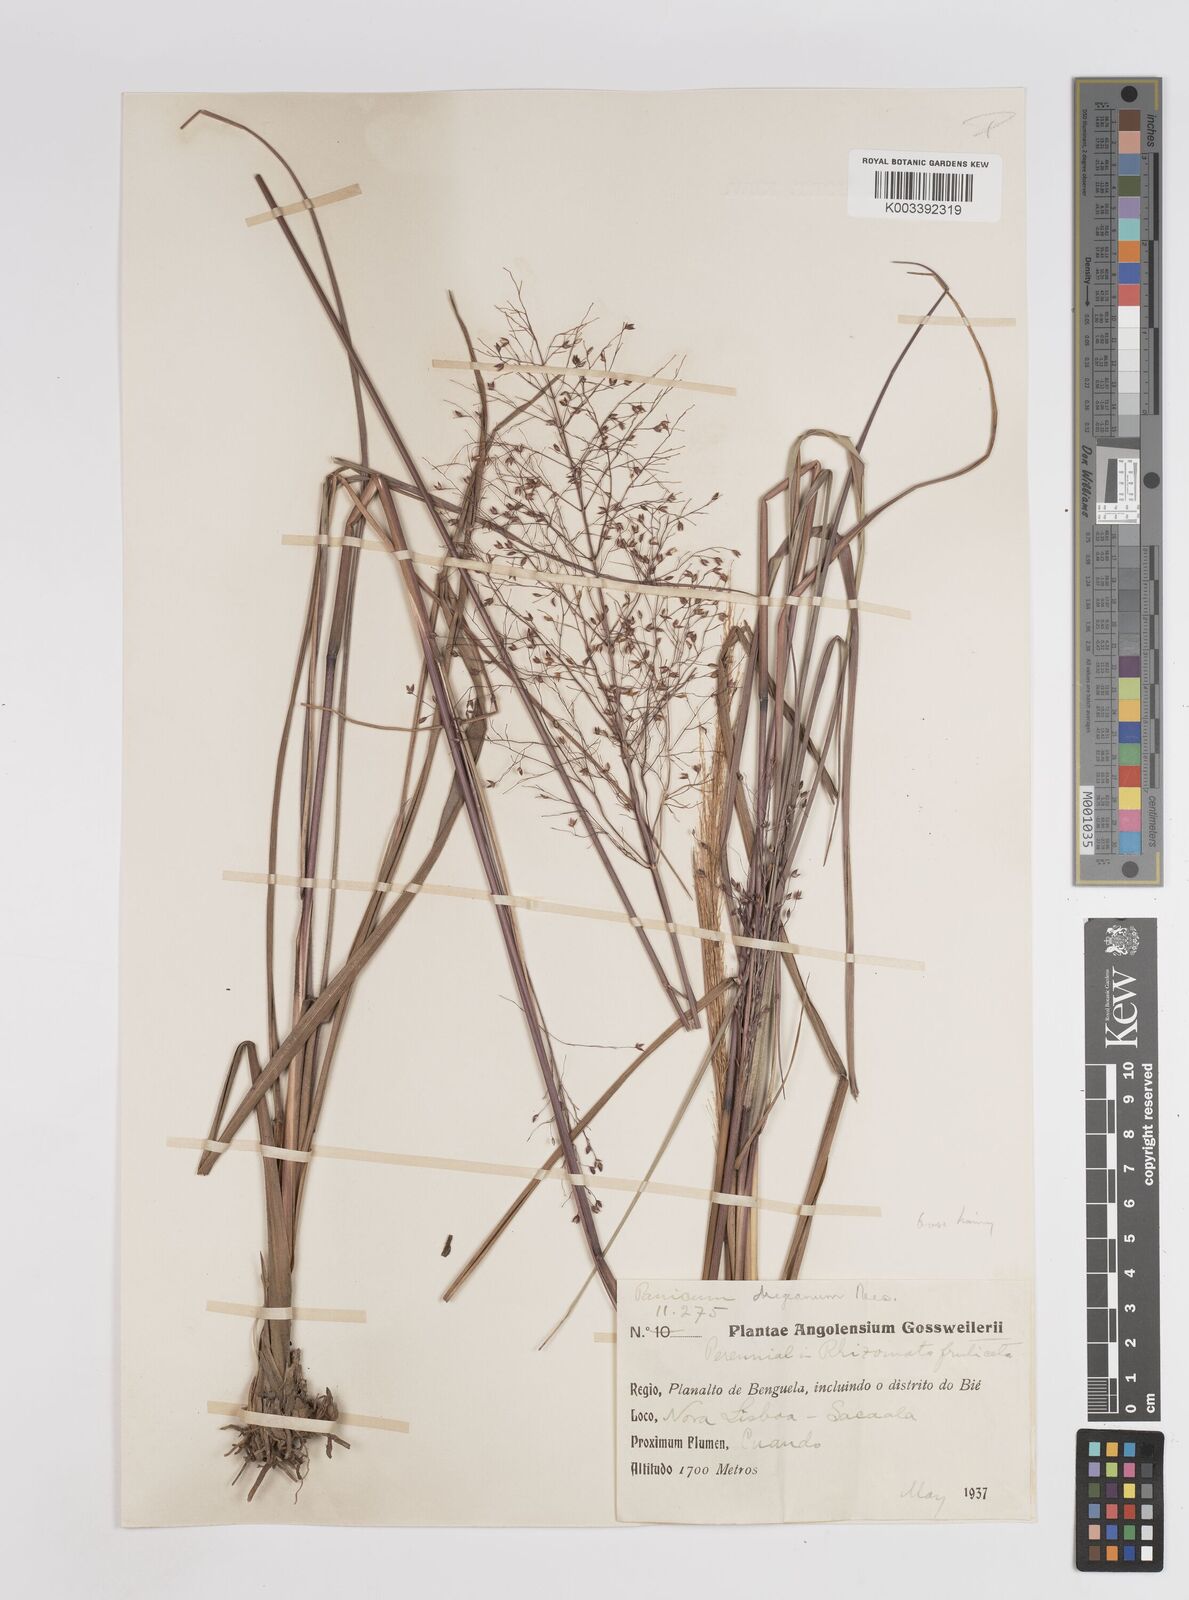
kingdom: Plantae
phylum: Tracheophyta
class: Liliopsida
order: Poales
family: Poaceae
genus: Panicum
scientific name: Panicum fluviicola
